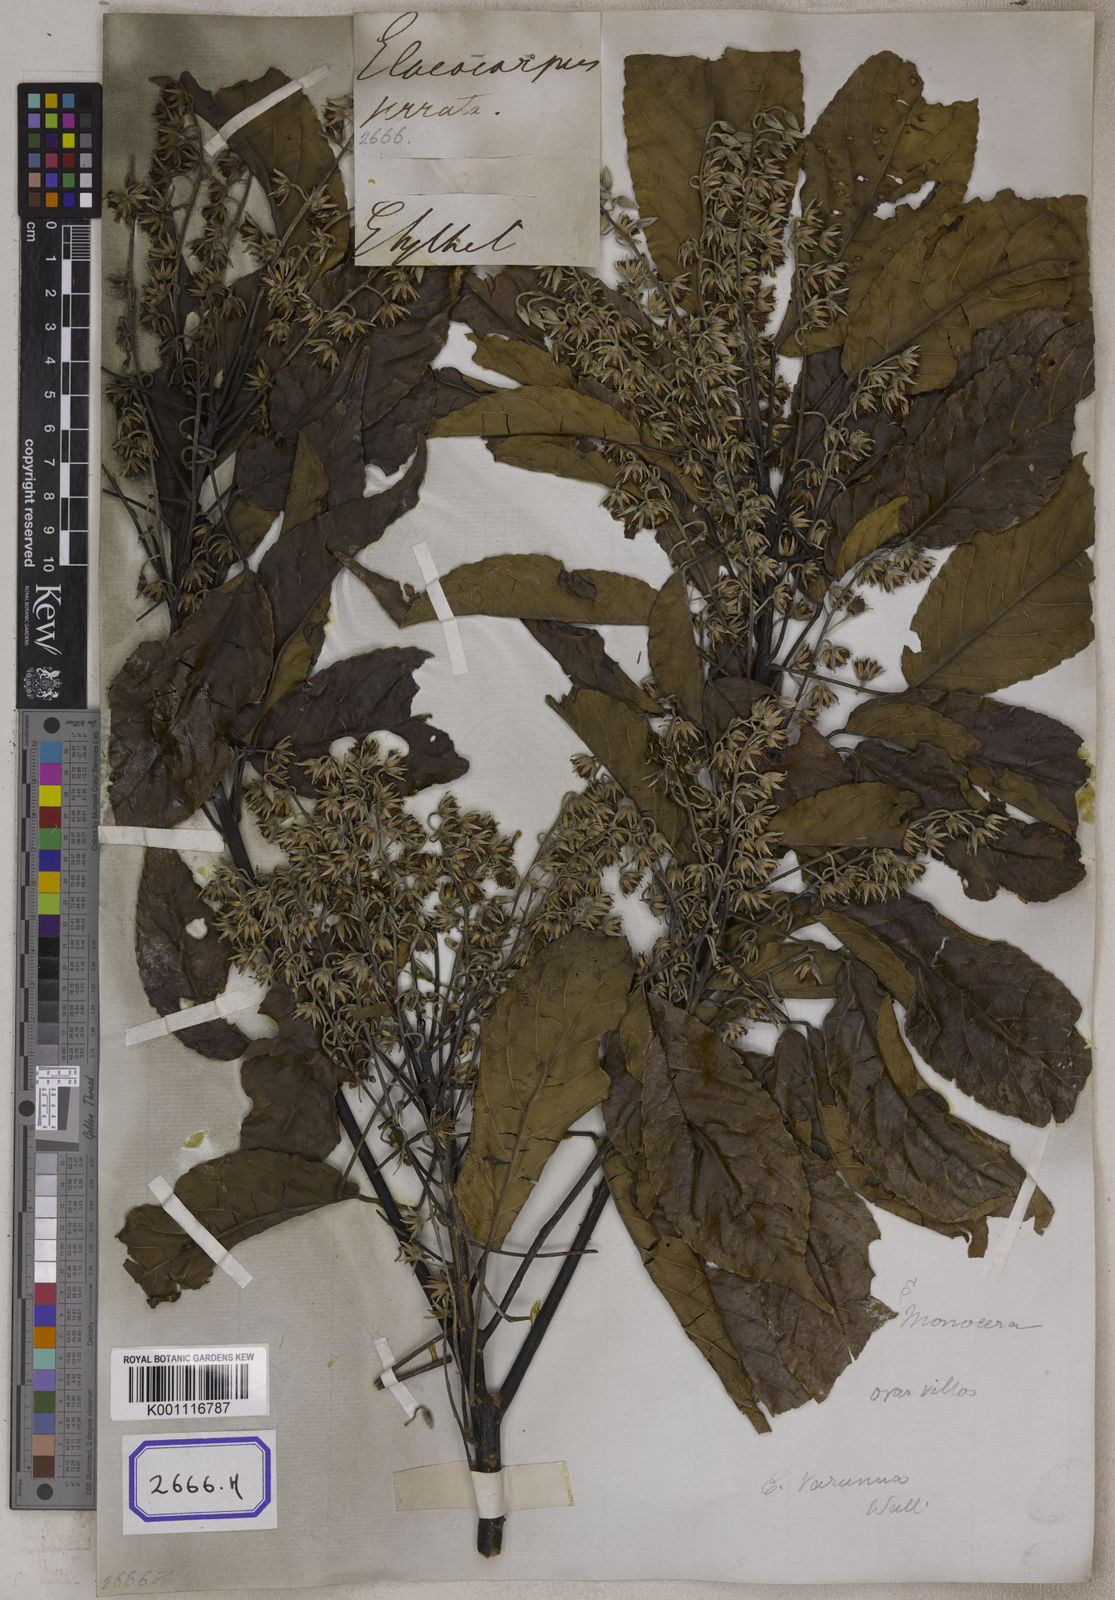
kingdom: Plantae
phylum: Tracheophyta
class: Magnoliopsida
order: Oxalidales
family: Elaeocarpaceae
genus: Elaeocarpus
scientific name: Elaeocarpus serratus
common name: Ceylon-olive
